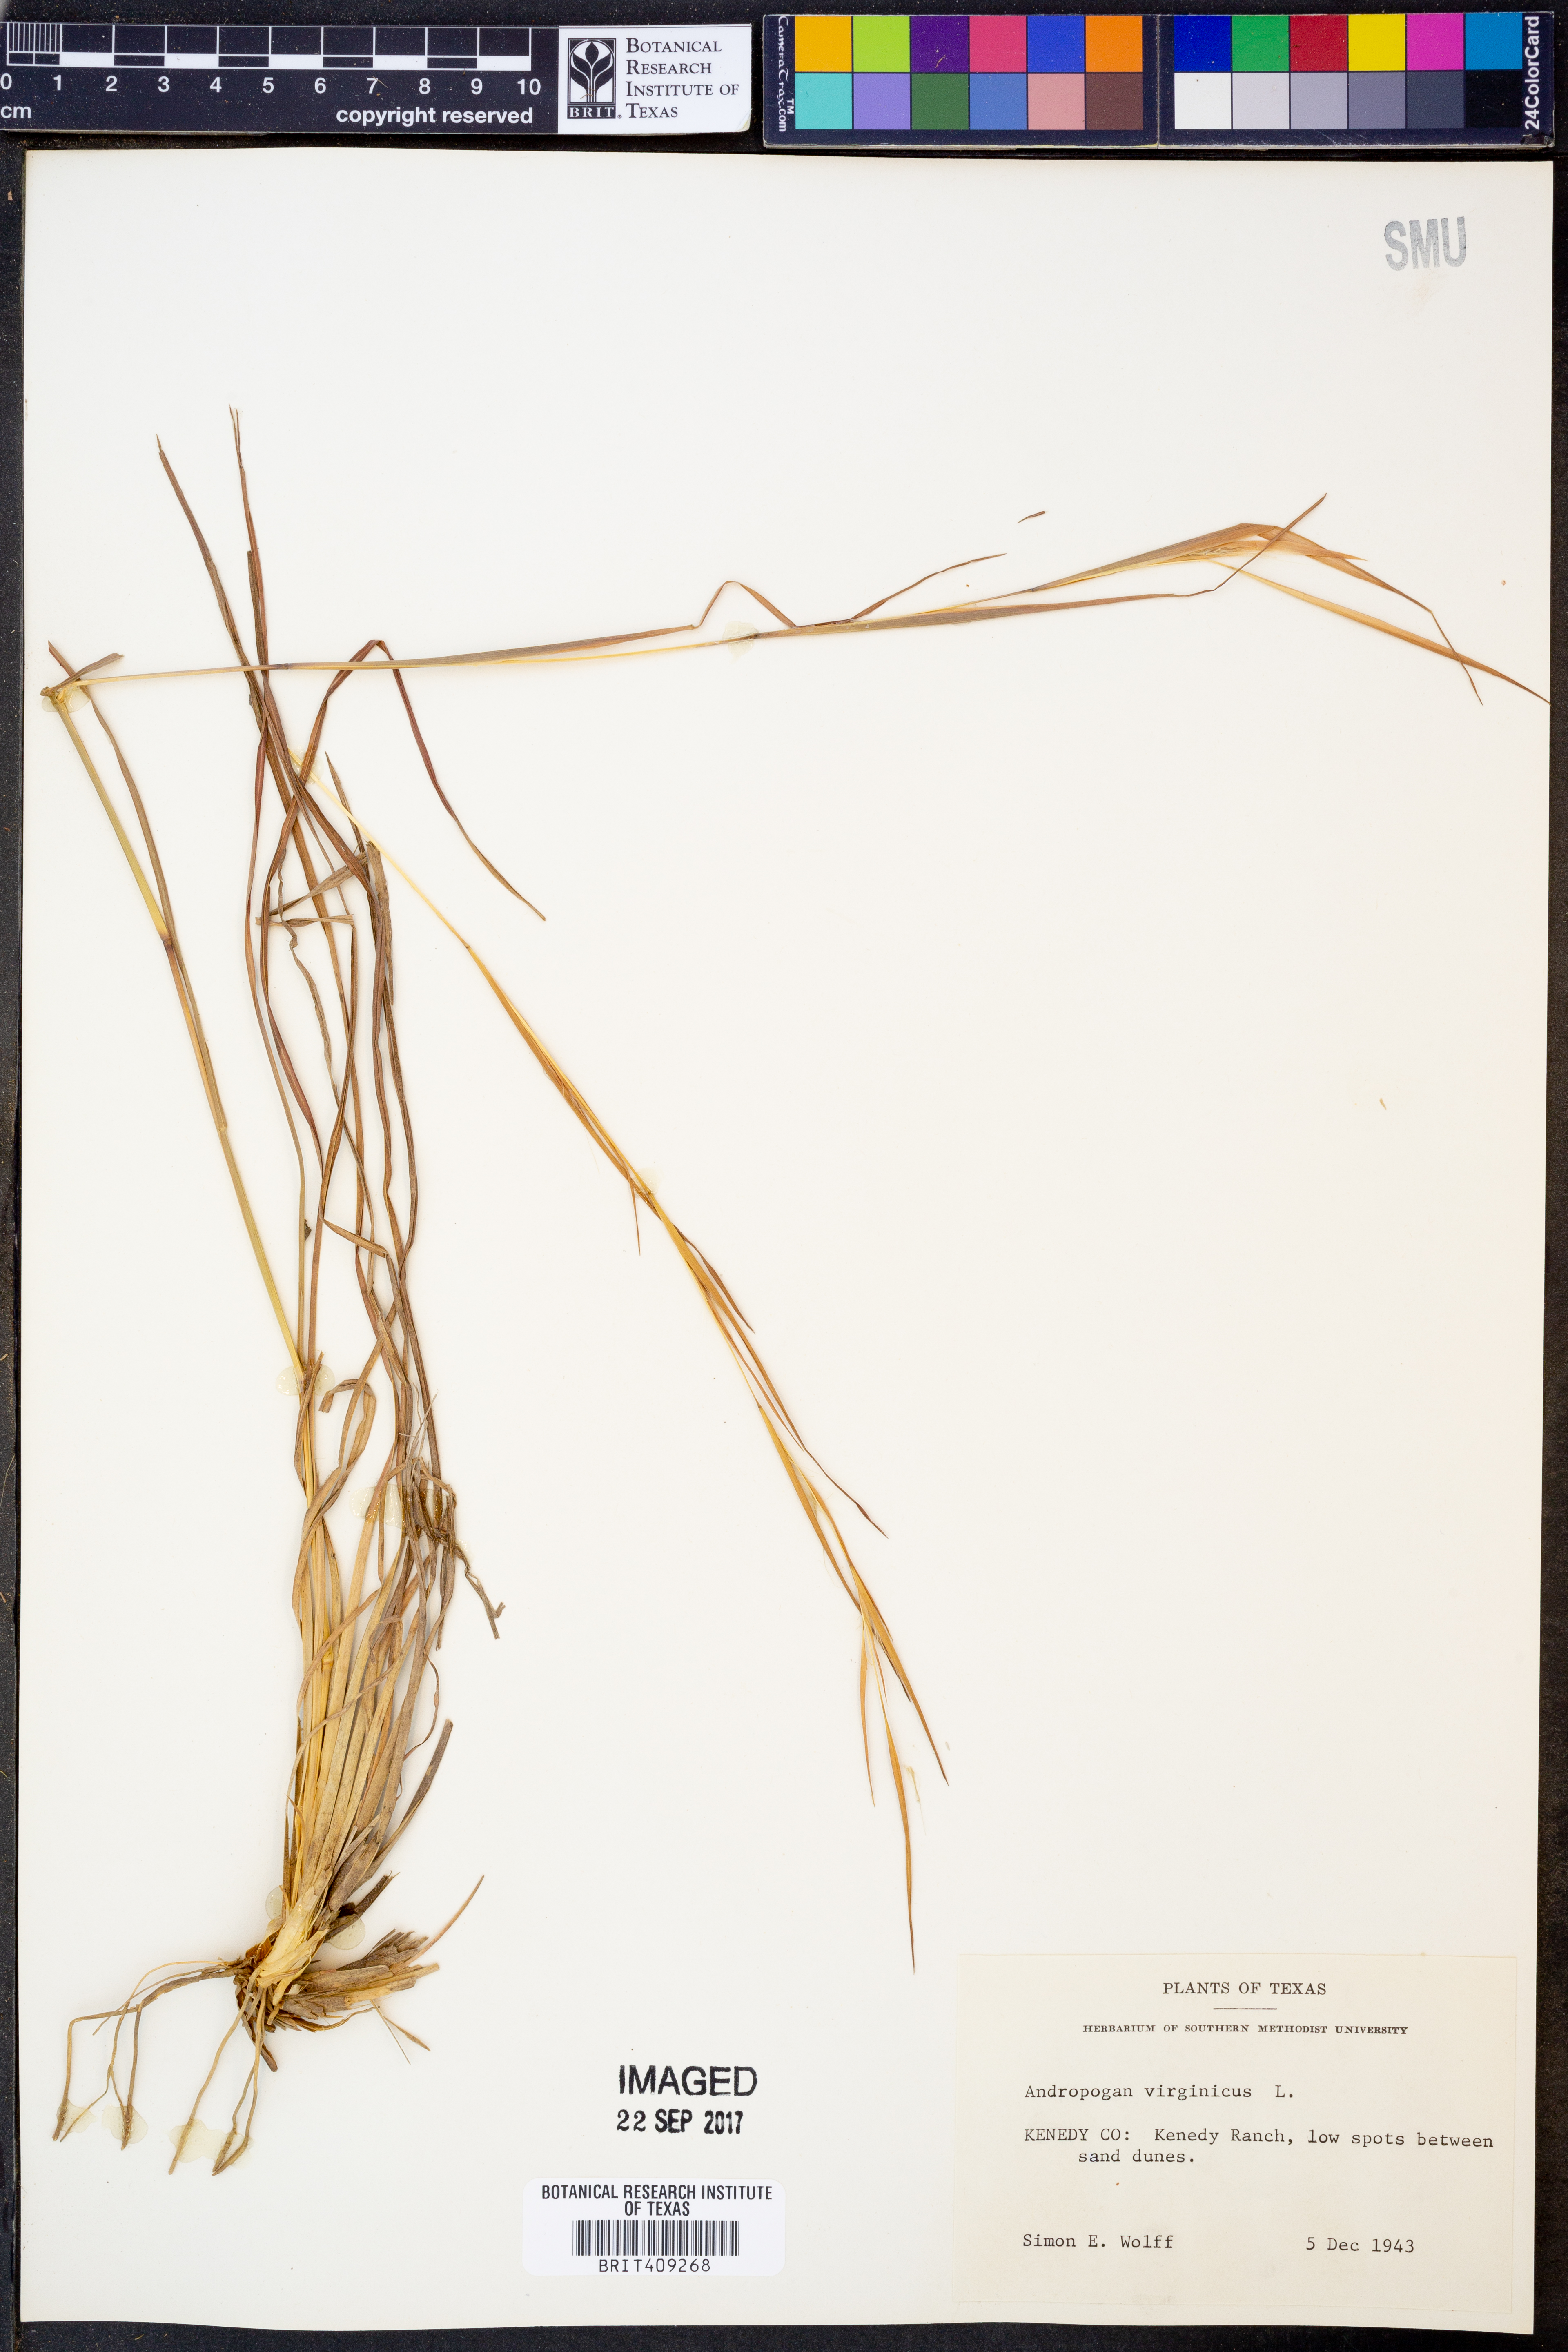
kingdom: Plantae
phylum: Tracheophyta
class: Liliopsida
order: Poales
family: Poaceae
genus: Andropogon
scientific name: Andropogon virginicus
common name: Broomsedge bluestem
